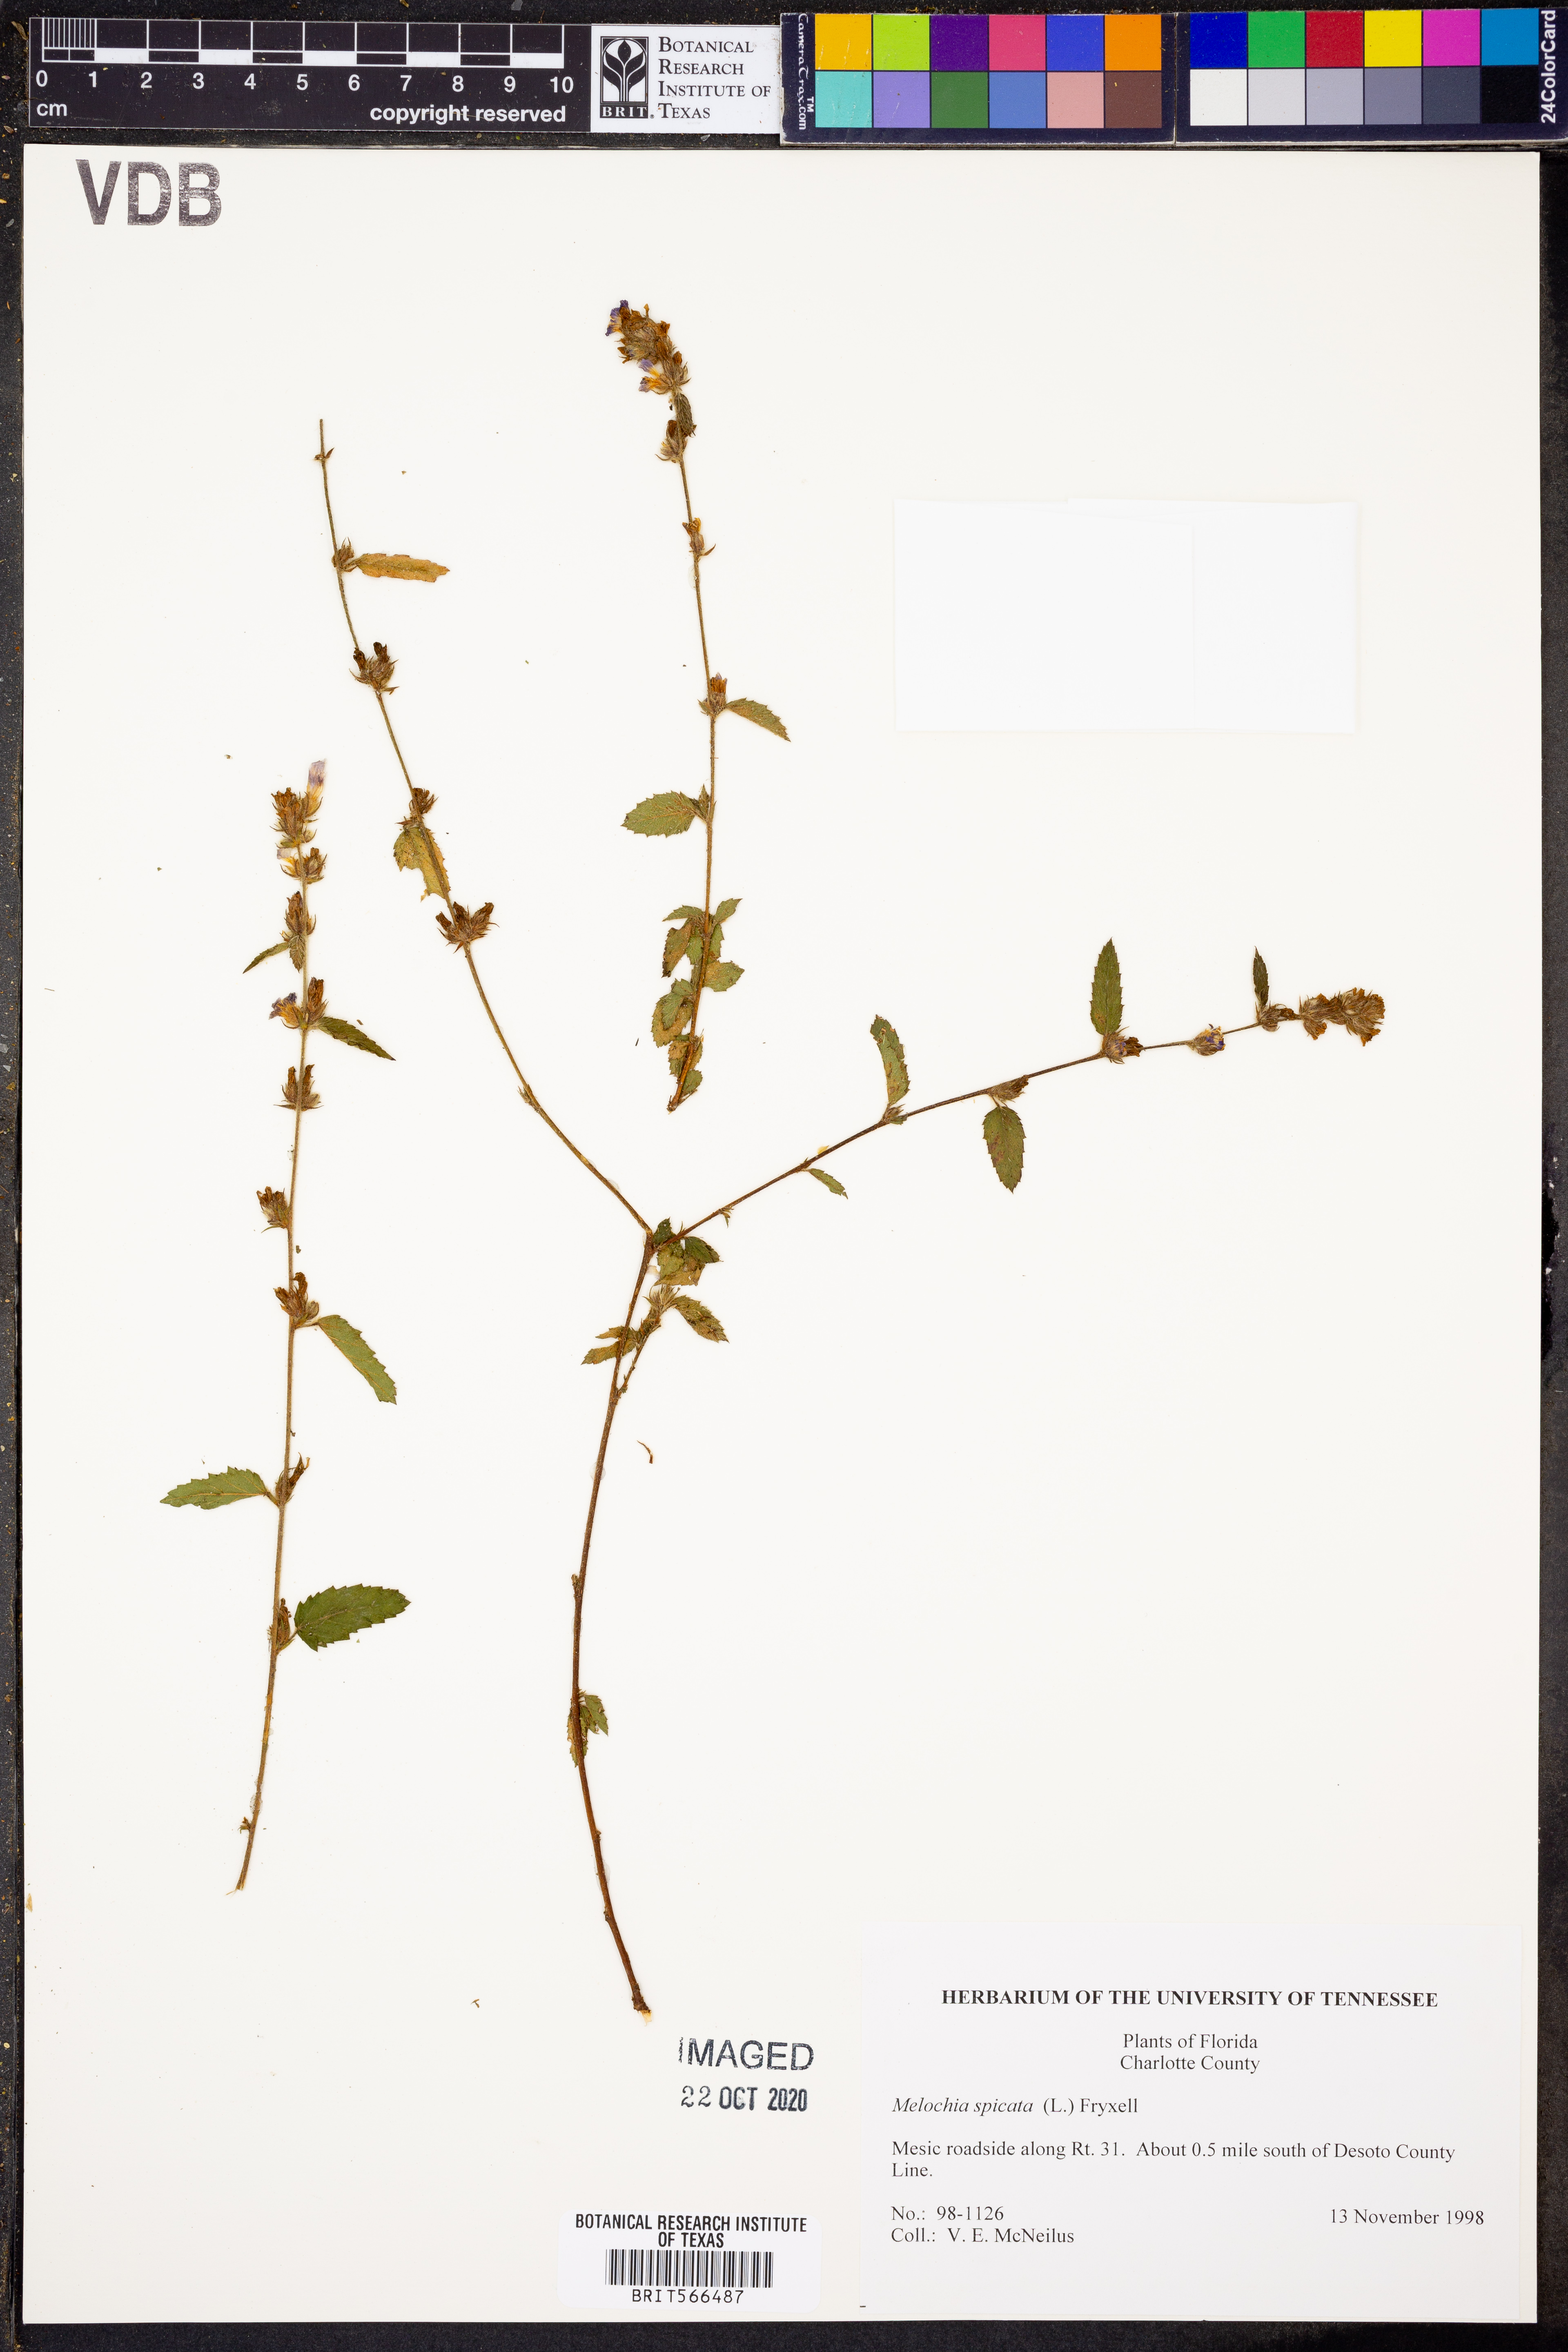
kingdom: Plantae
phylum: Tracheophyta
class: Magnoliopsida
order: Malvales
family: Malvaceae
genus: Melochia
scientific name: Melochia spicata
